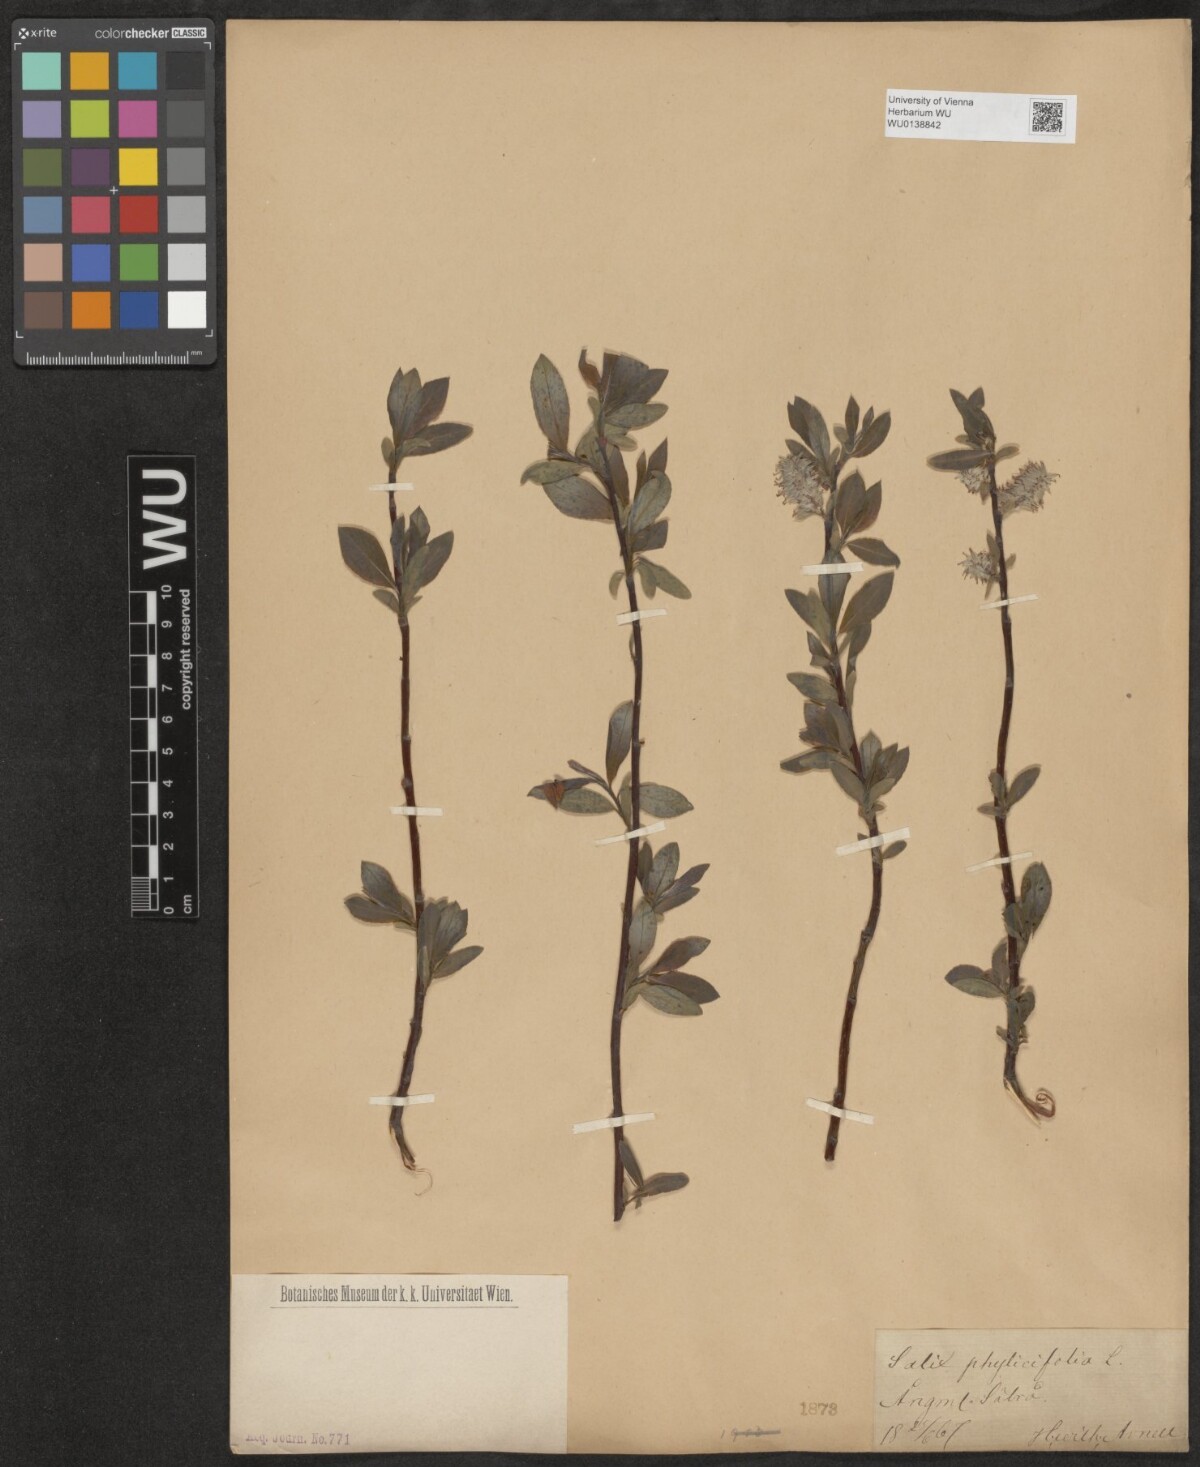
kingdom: Plantae
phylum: Tracheophyta
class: Magnoliopsida
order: Malpighiales
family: Salicaceae
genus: Salix
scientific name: Salix phylicifolia
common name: Tea-leaved willow
